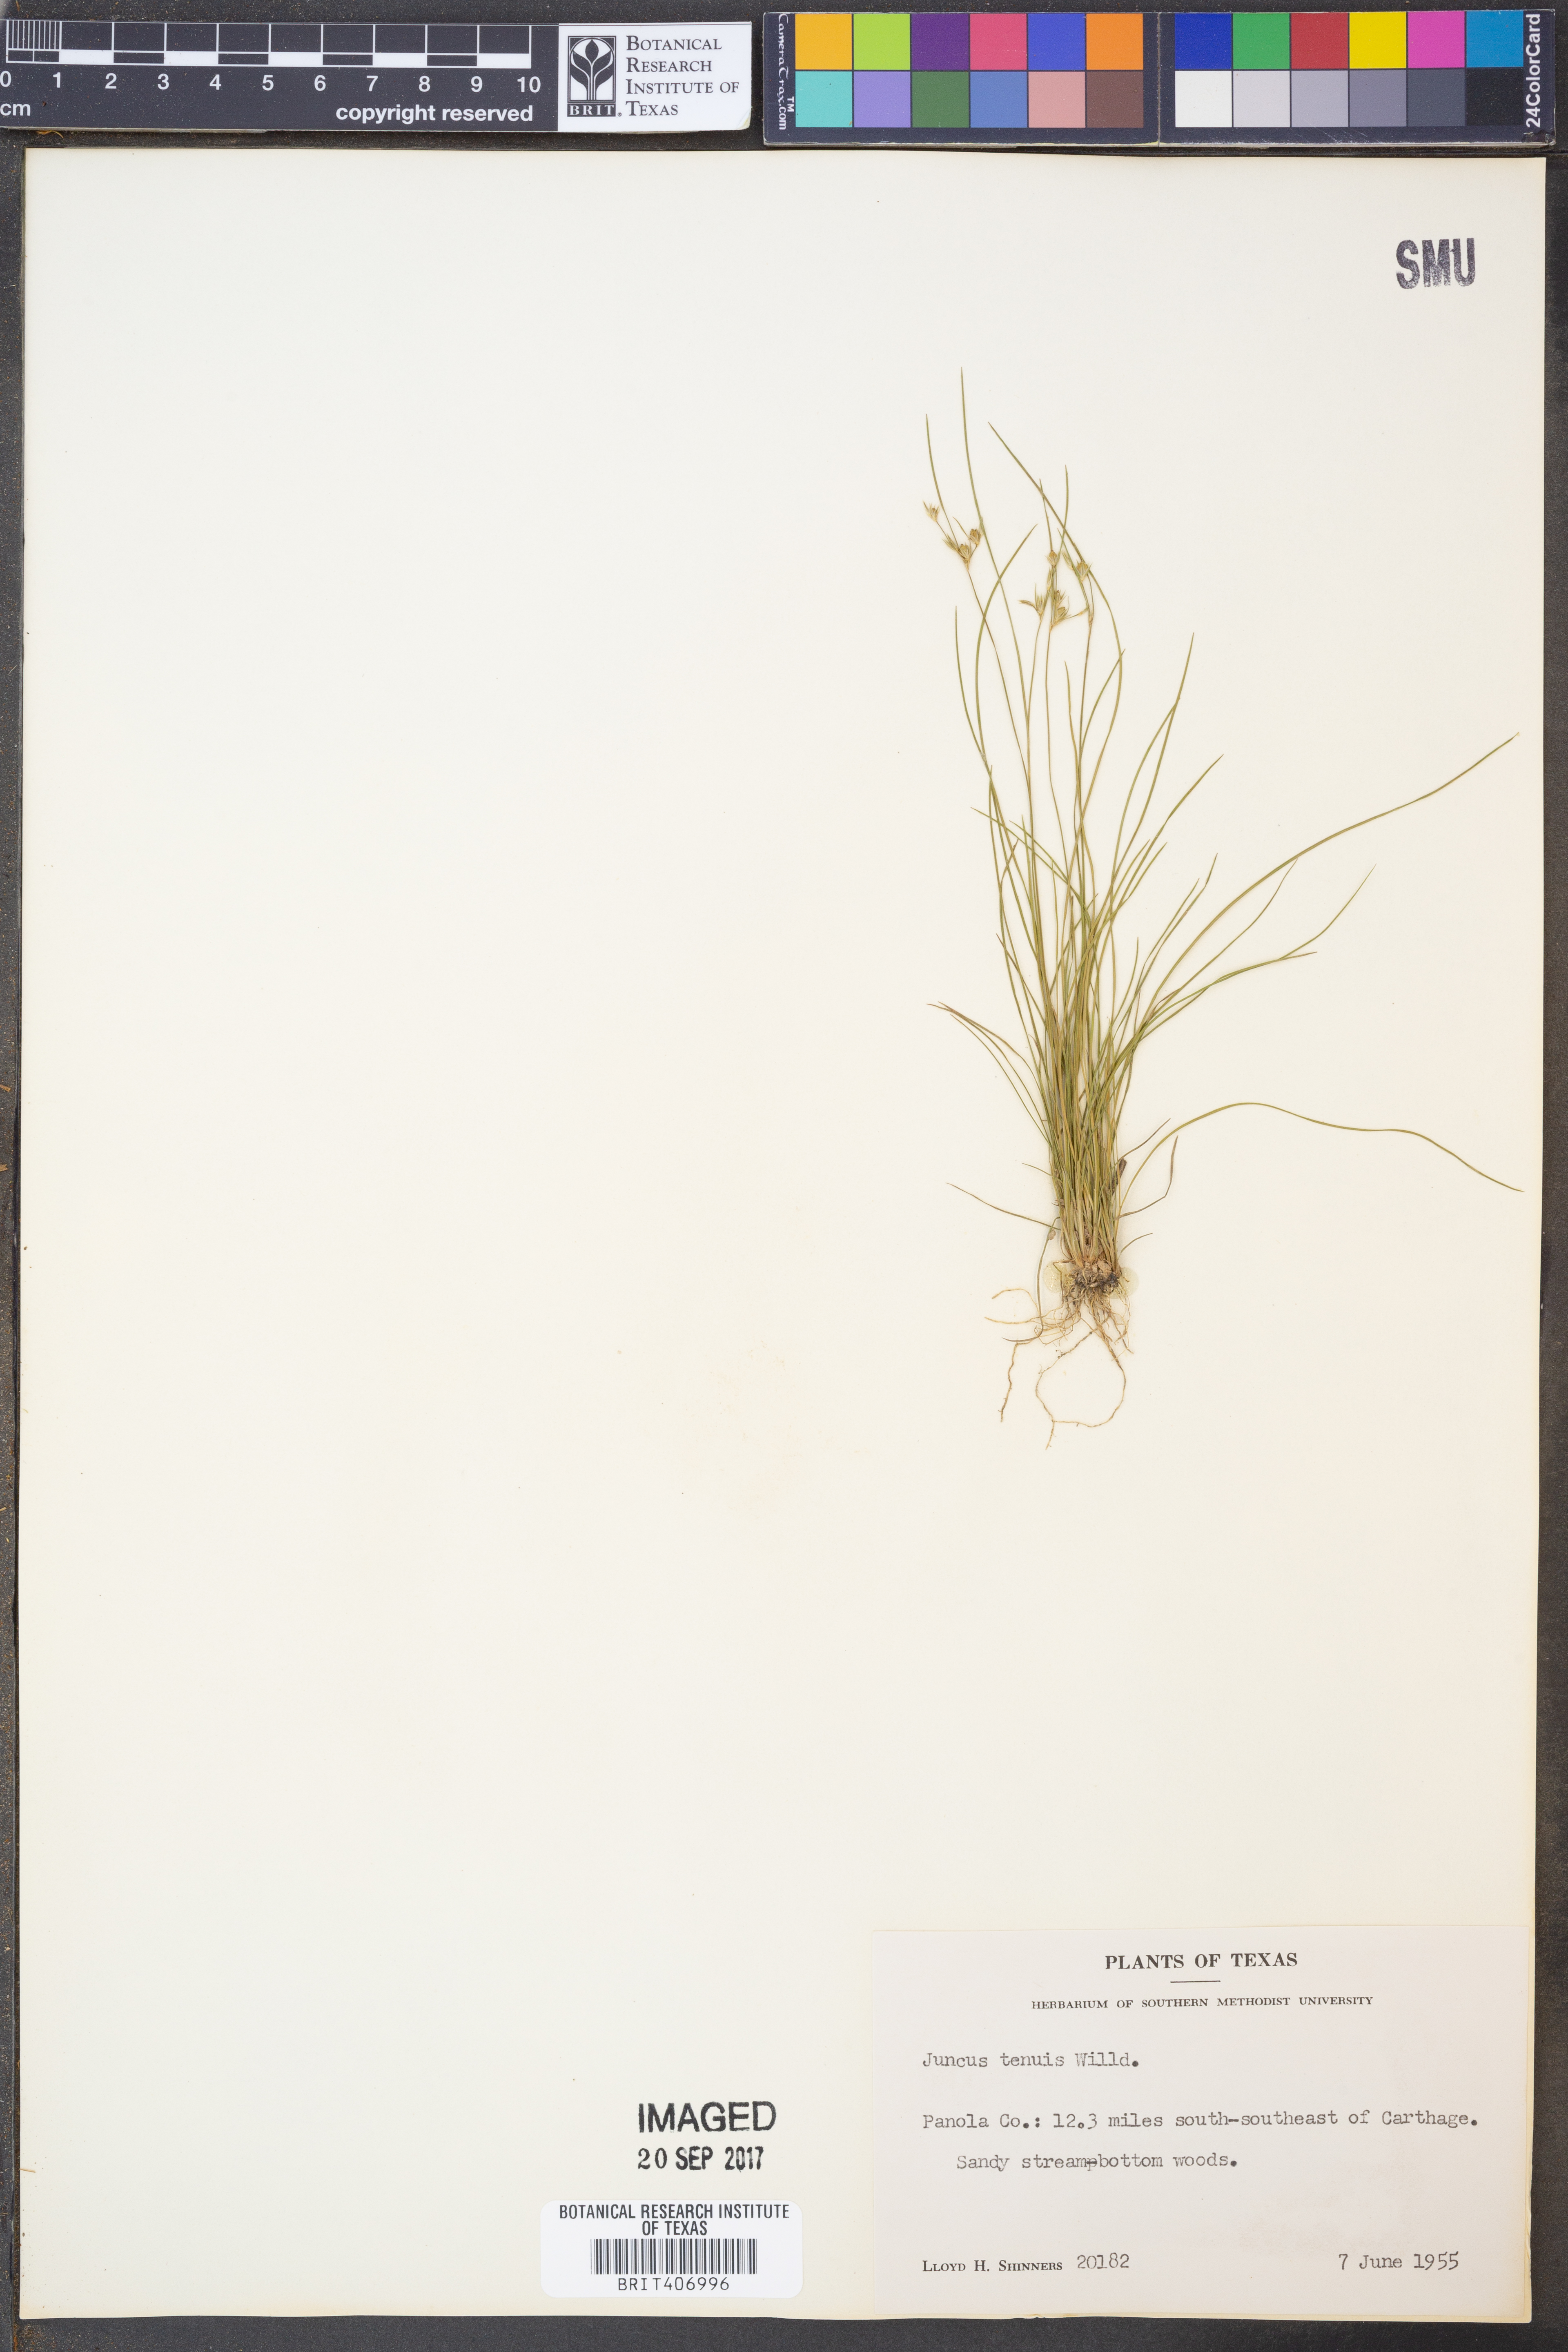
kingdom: Plantae
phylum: Tracheophyta
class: Liliopsida
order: Poales
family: Juncaceae
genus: Juncus
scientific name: Juncus tenuis
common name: Slender rush
